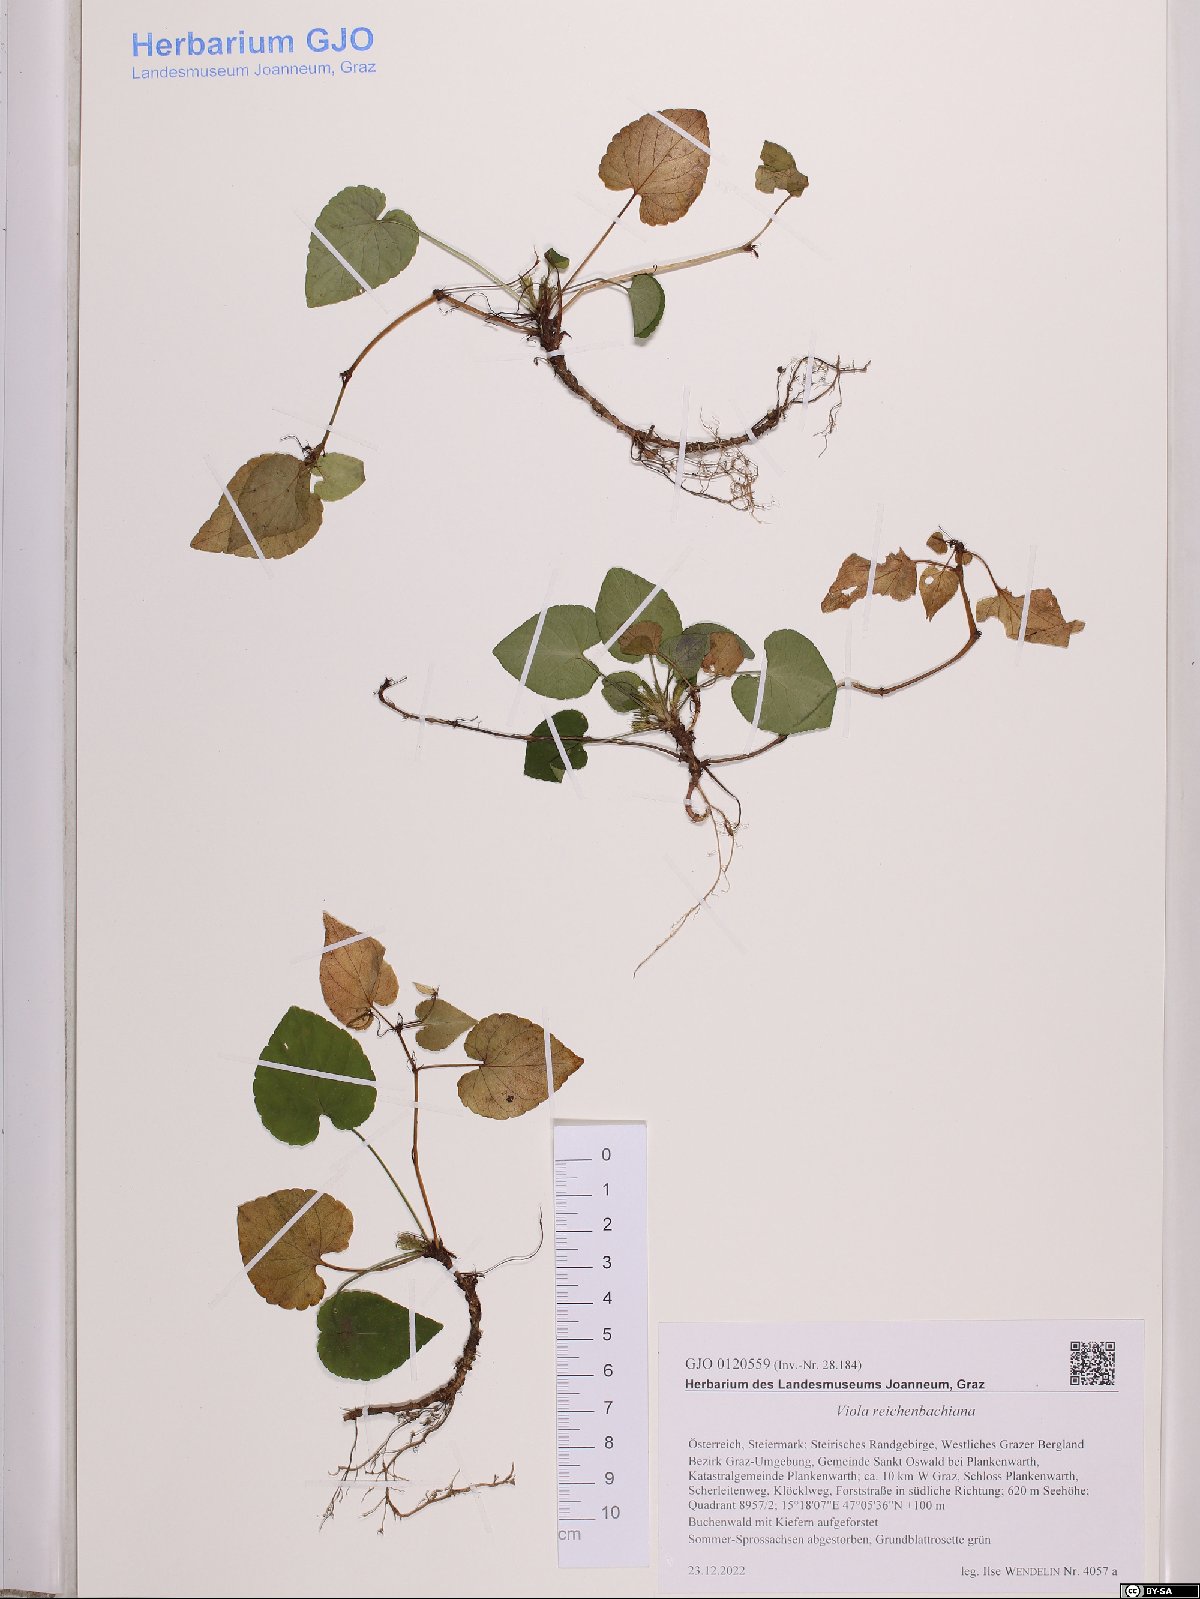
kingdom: Plantae
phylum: Tracheophyta
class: Magnoliopsida
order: Malpighiales
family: Violaceae
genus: Viola
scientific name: Viola reichenbachiana
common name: Early dog-violet
